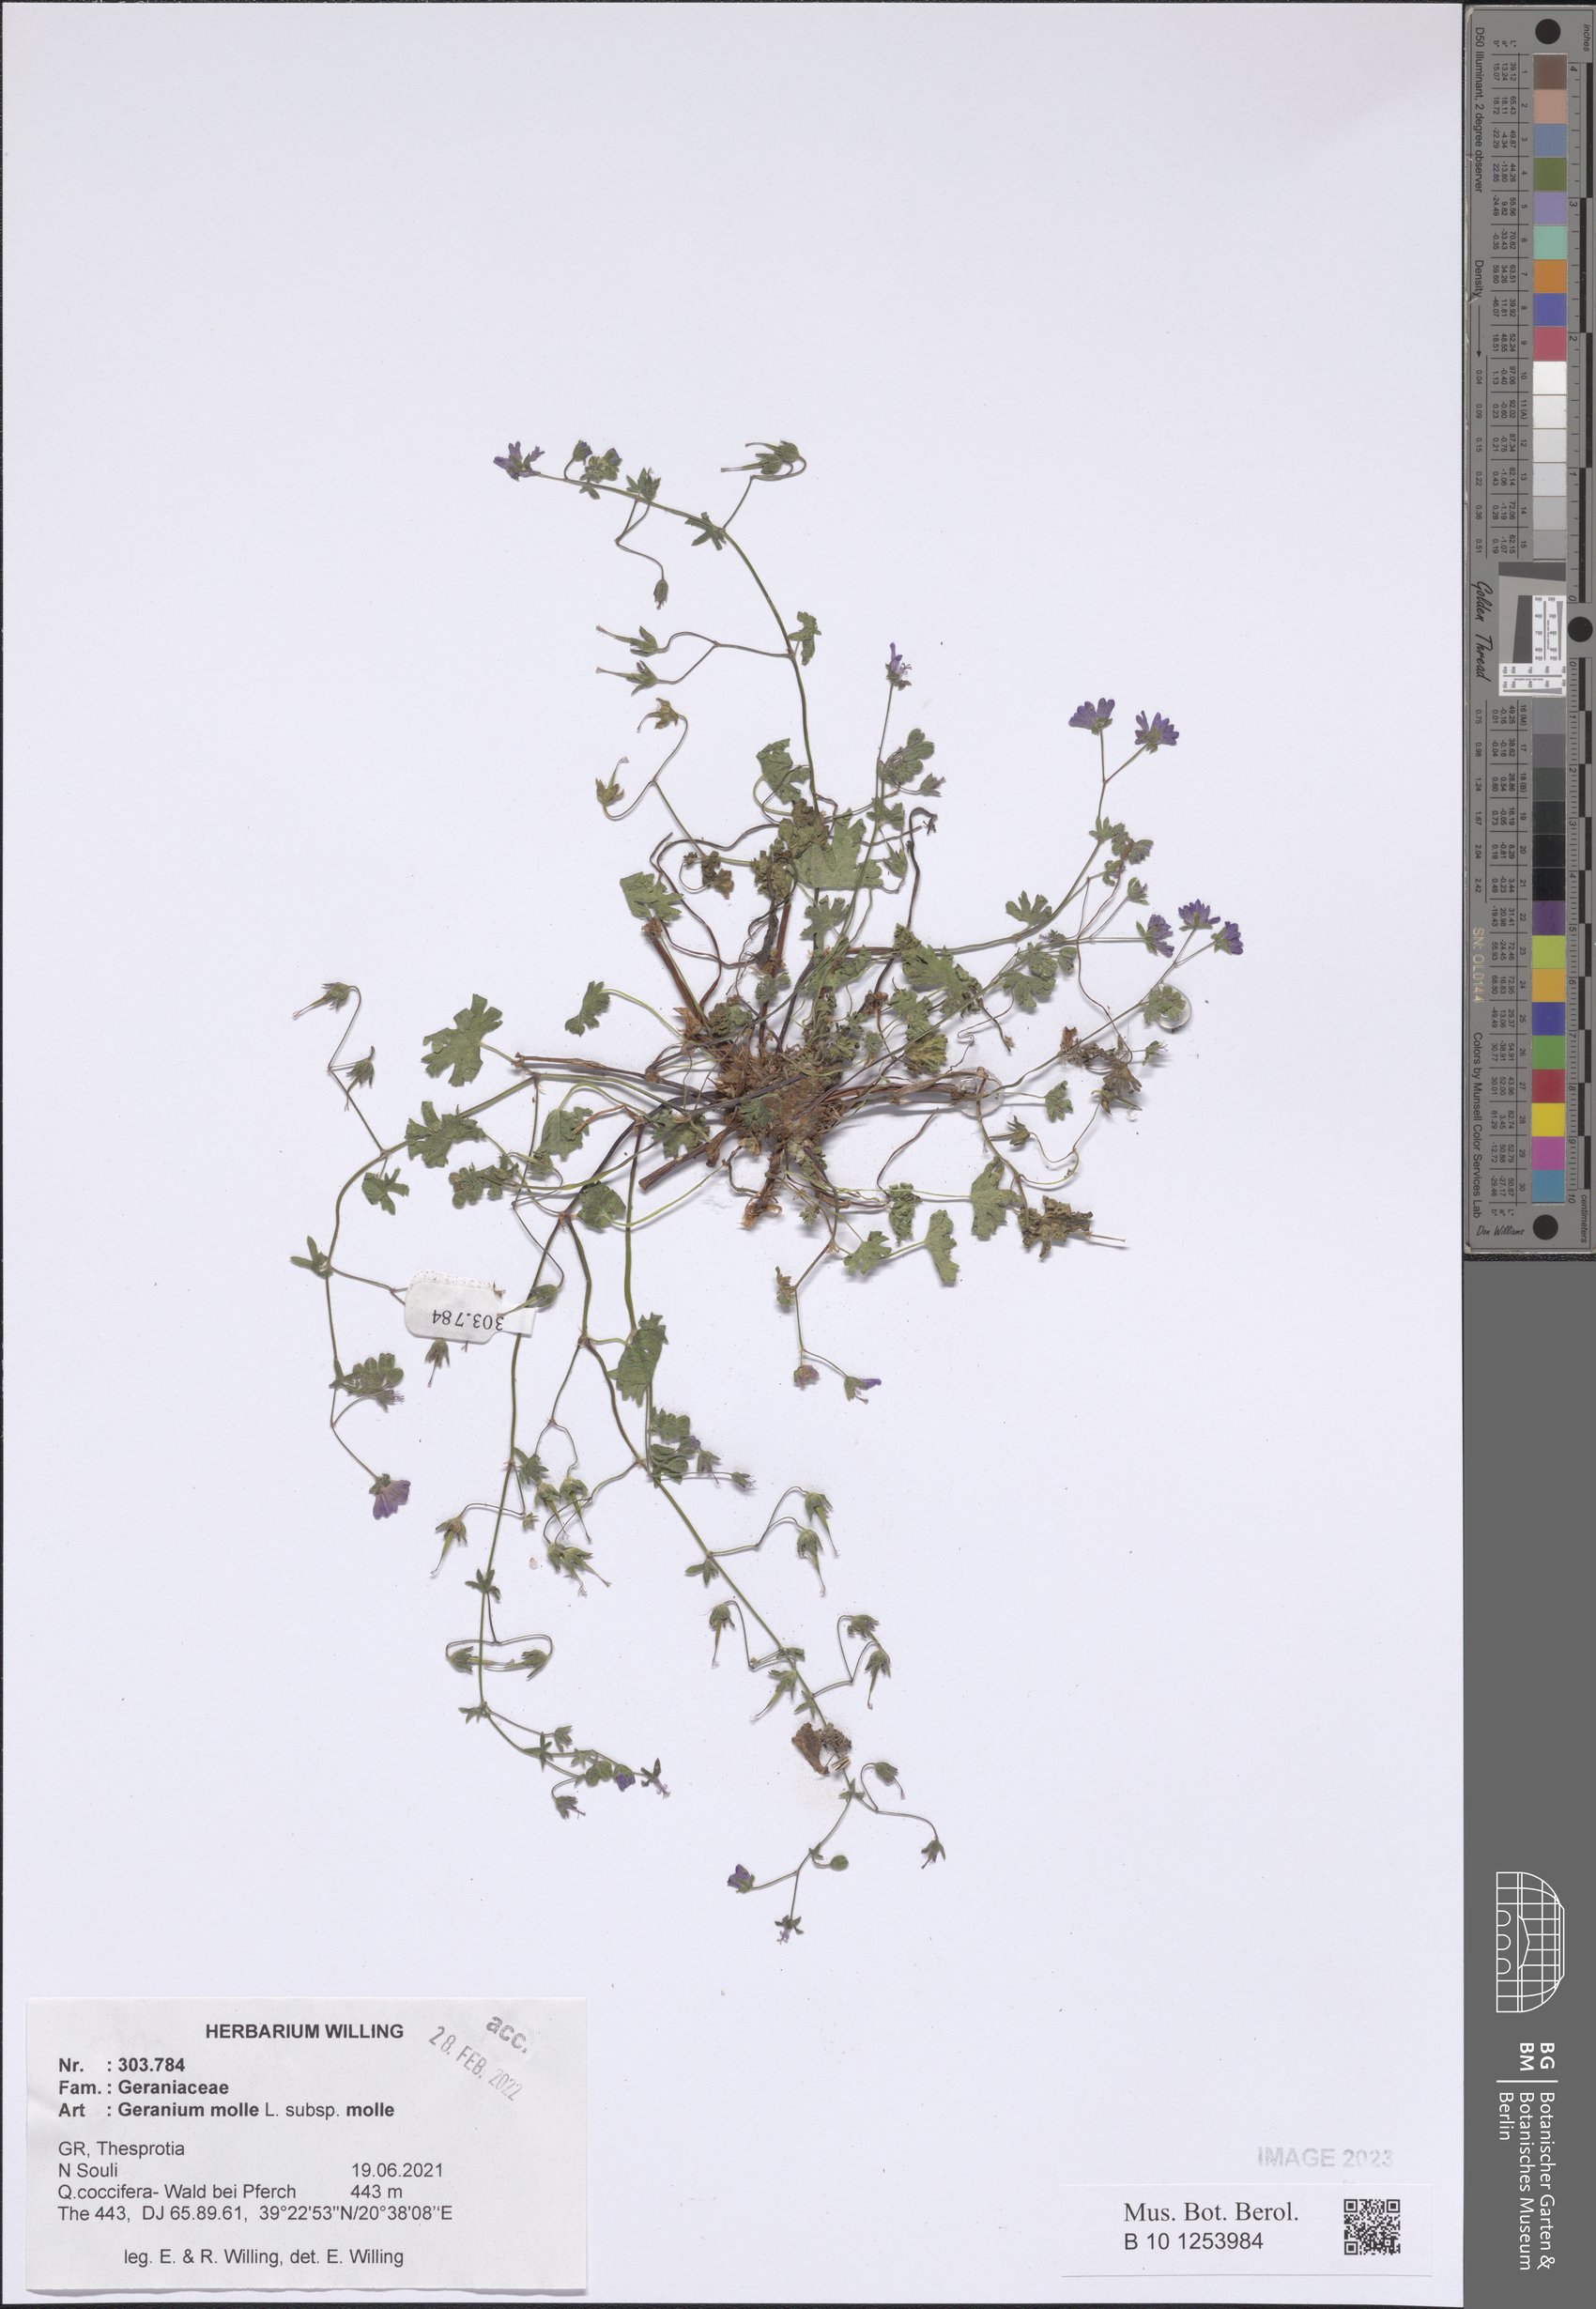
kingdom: Plantae
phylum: Tracheophyta
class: Magnoliopsida
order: Geraniales
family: Geraniaceae
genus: Geranium
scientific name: Geranium molle
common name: Dove's-foot crane's-bill
